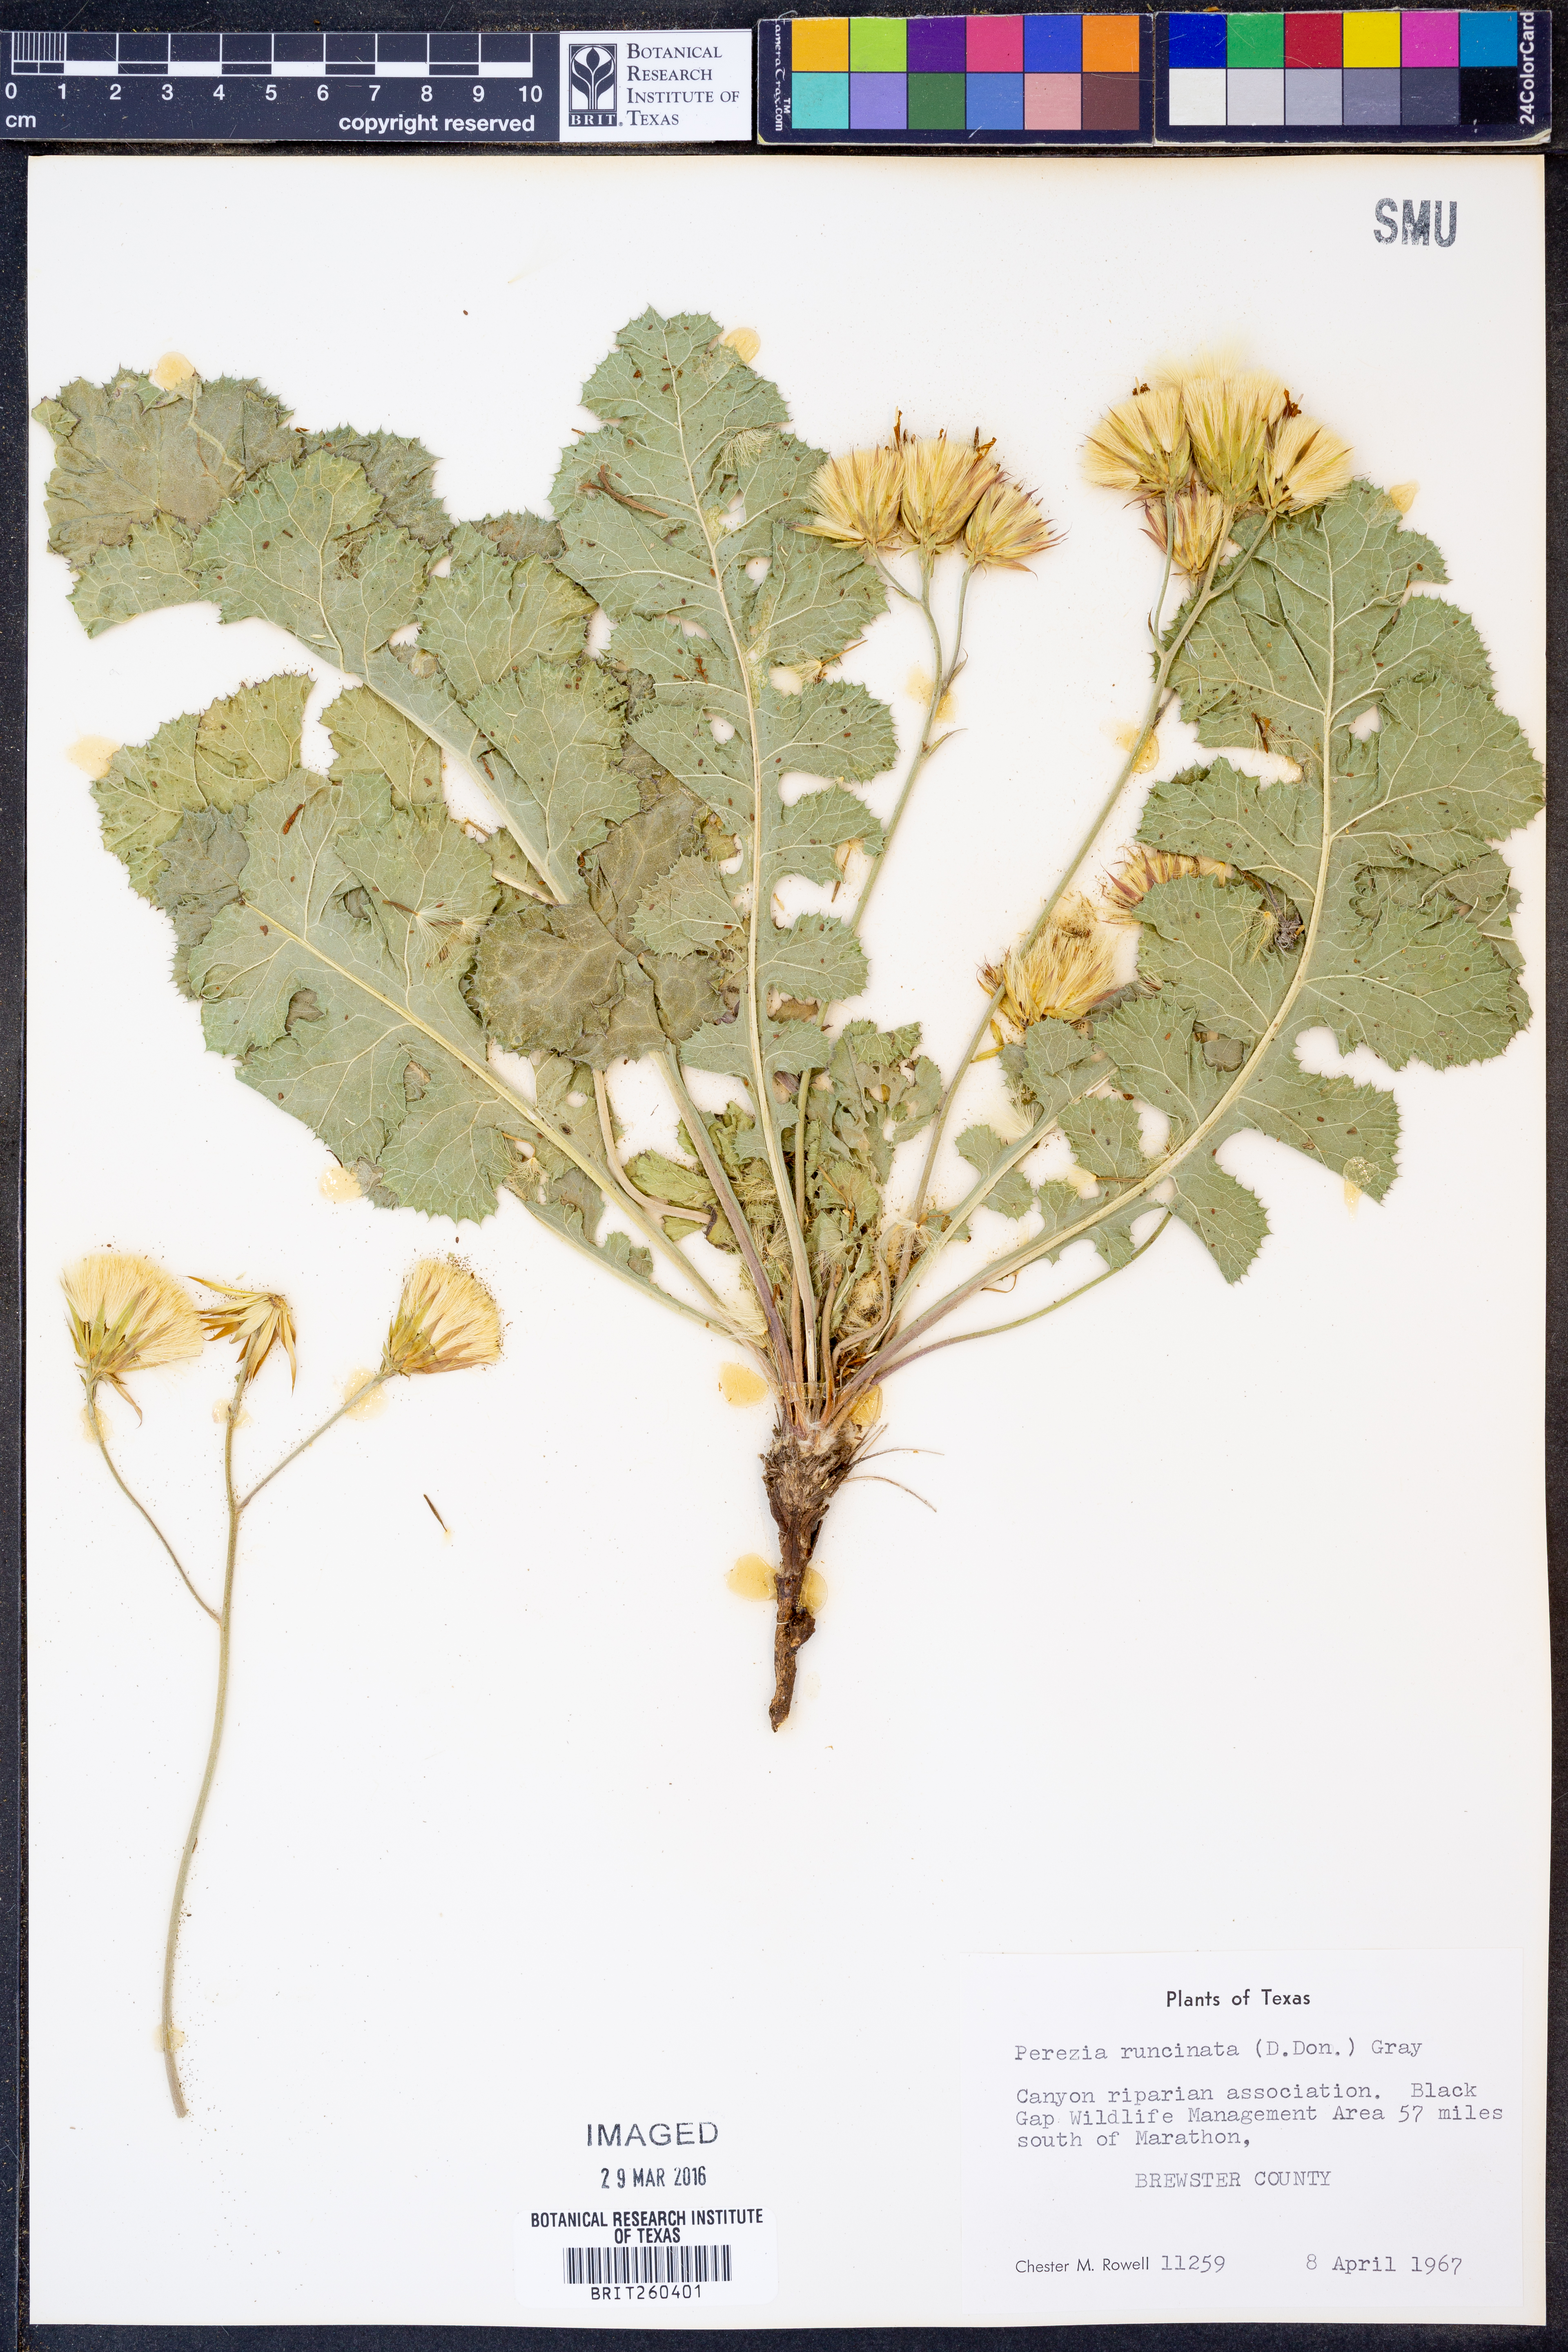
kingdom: Plantae
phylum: Tracheophyta
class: Magnoliopsida
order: Asterales
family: Asteraceae
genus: Acourtia
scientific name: Acourtia runcinata
